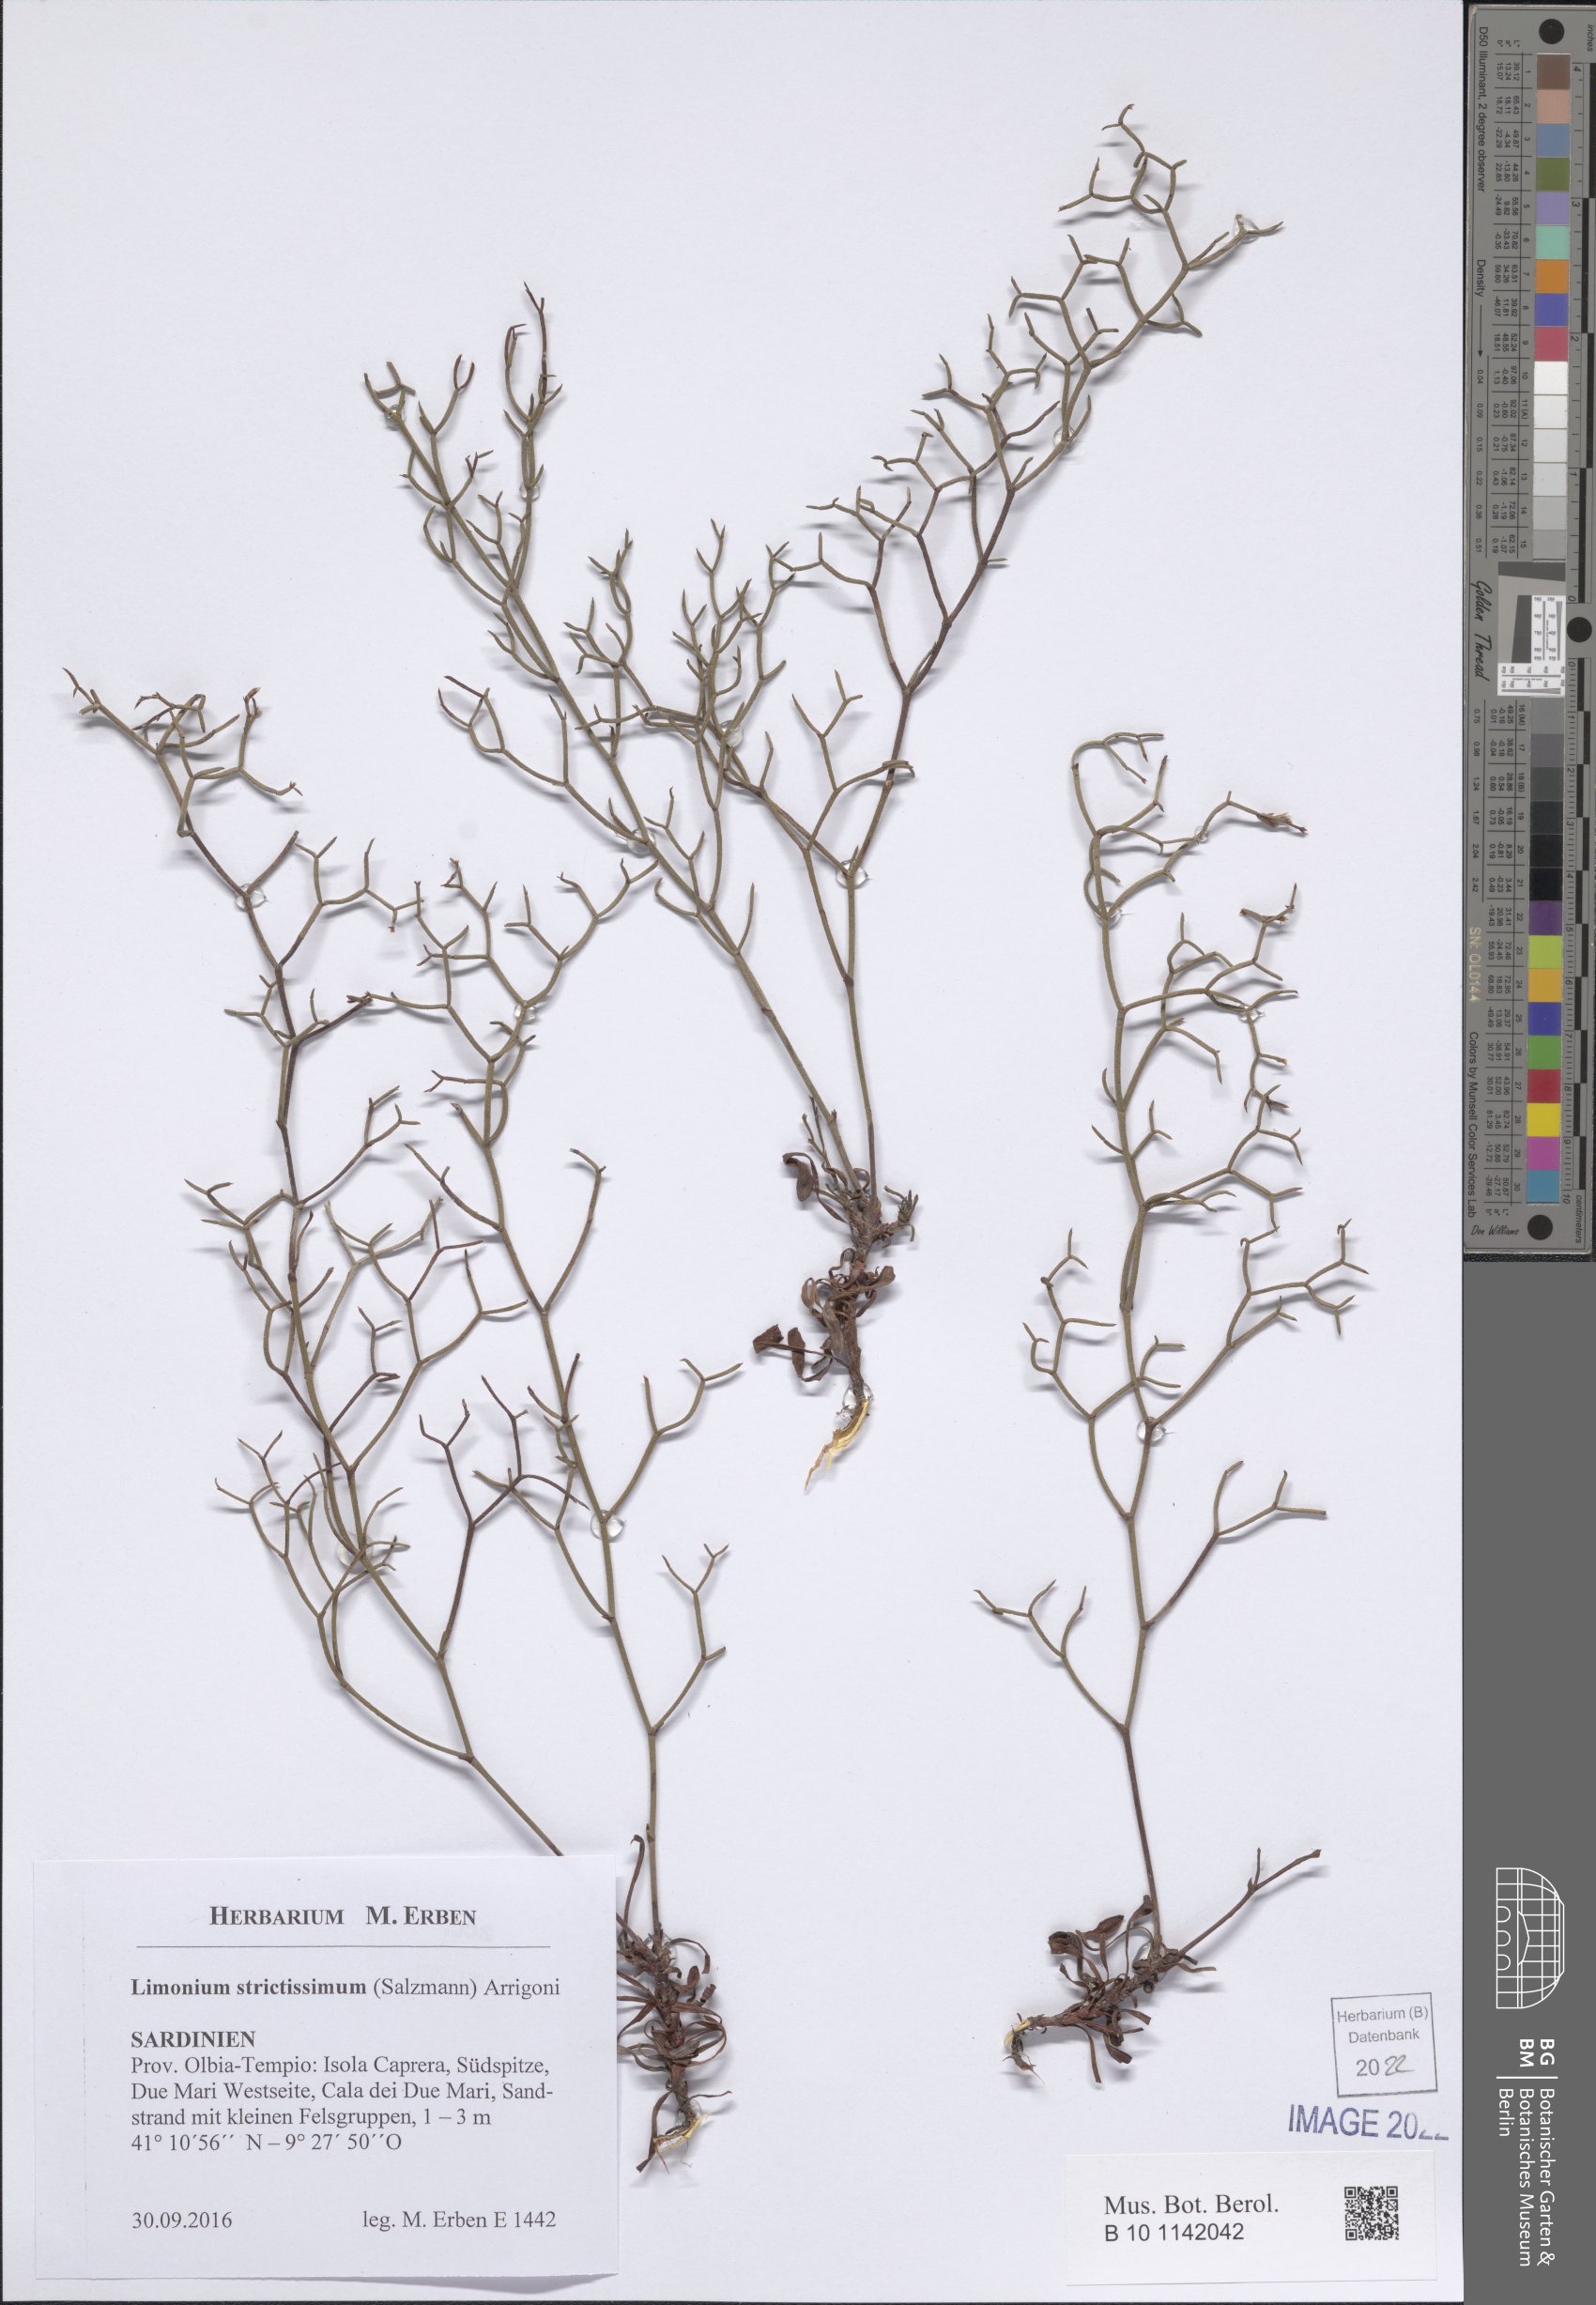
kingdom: Plantae
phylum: Tracheophyta
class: Magnoliopsida
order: Caryophyllales
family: Plumbaginaceae
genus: Limonium
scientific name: Limonium strictissimum
